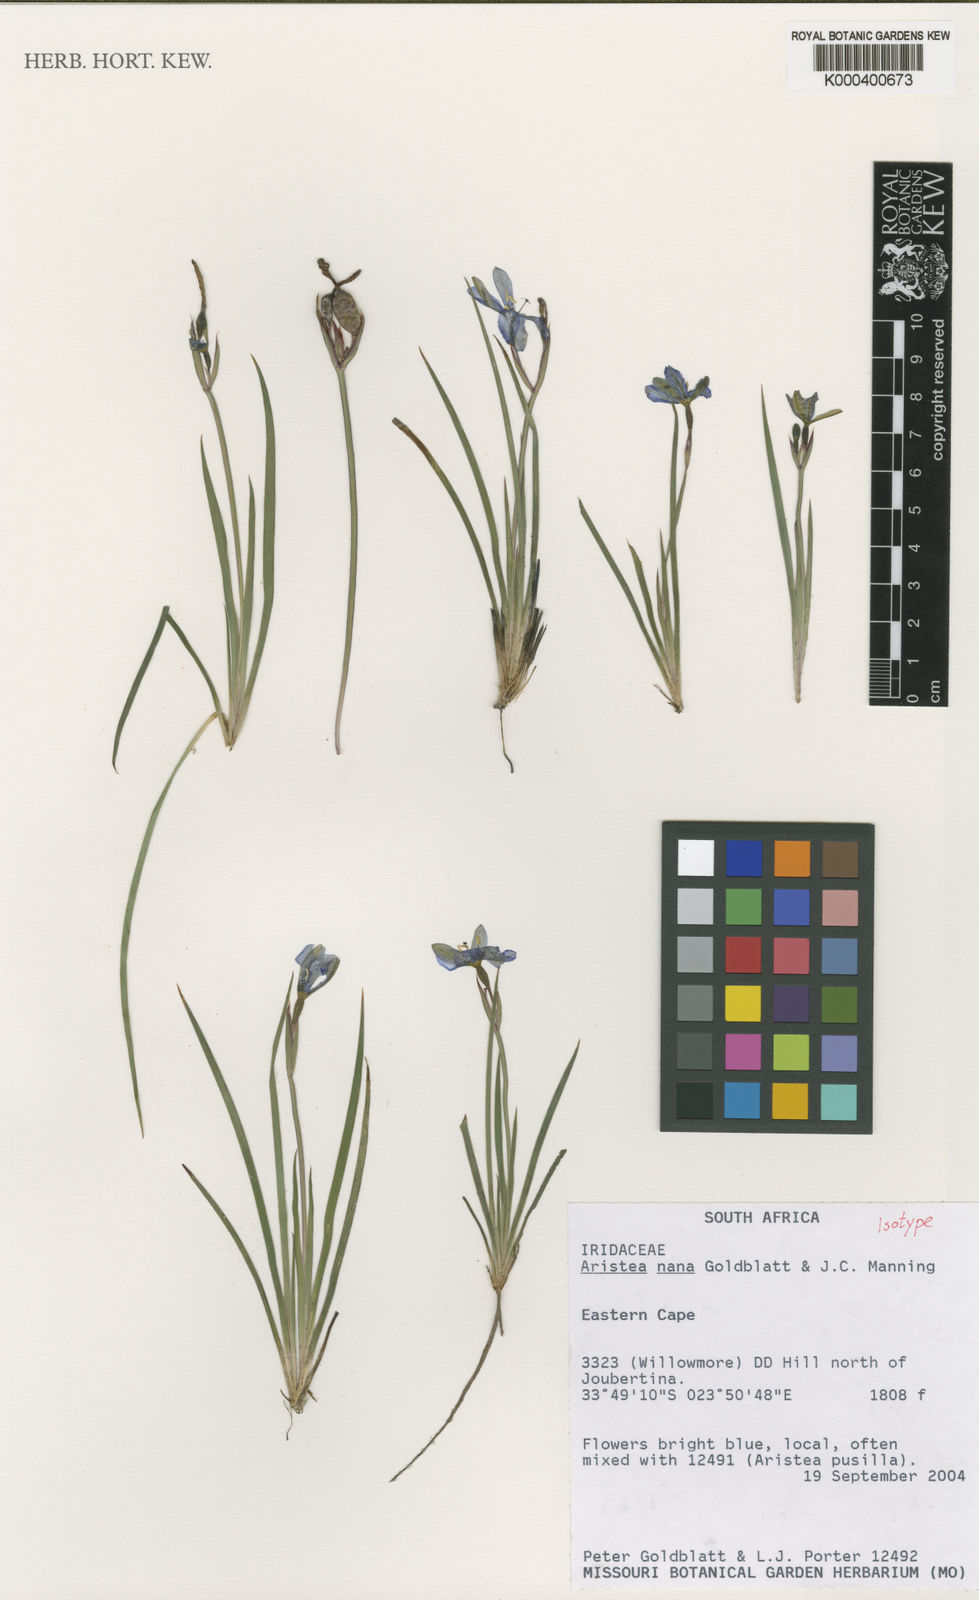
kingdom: Plantae
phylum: Tracheophyta
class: Liliopsida
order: Asparagales
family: Iridaceae
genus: Aristea
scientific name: Aristea nana
